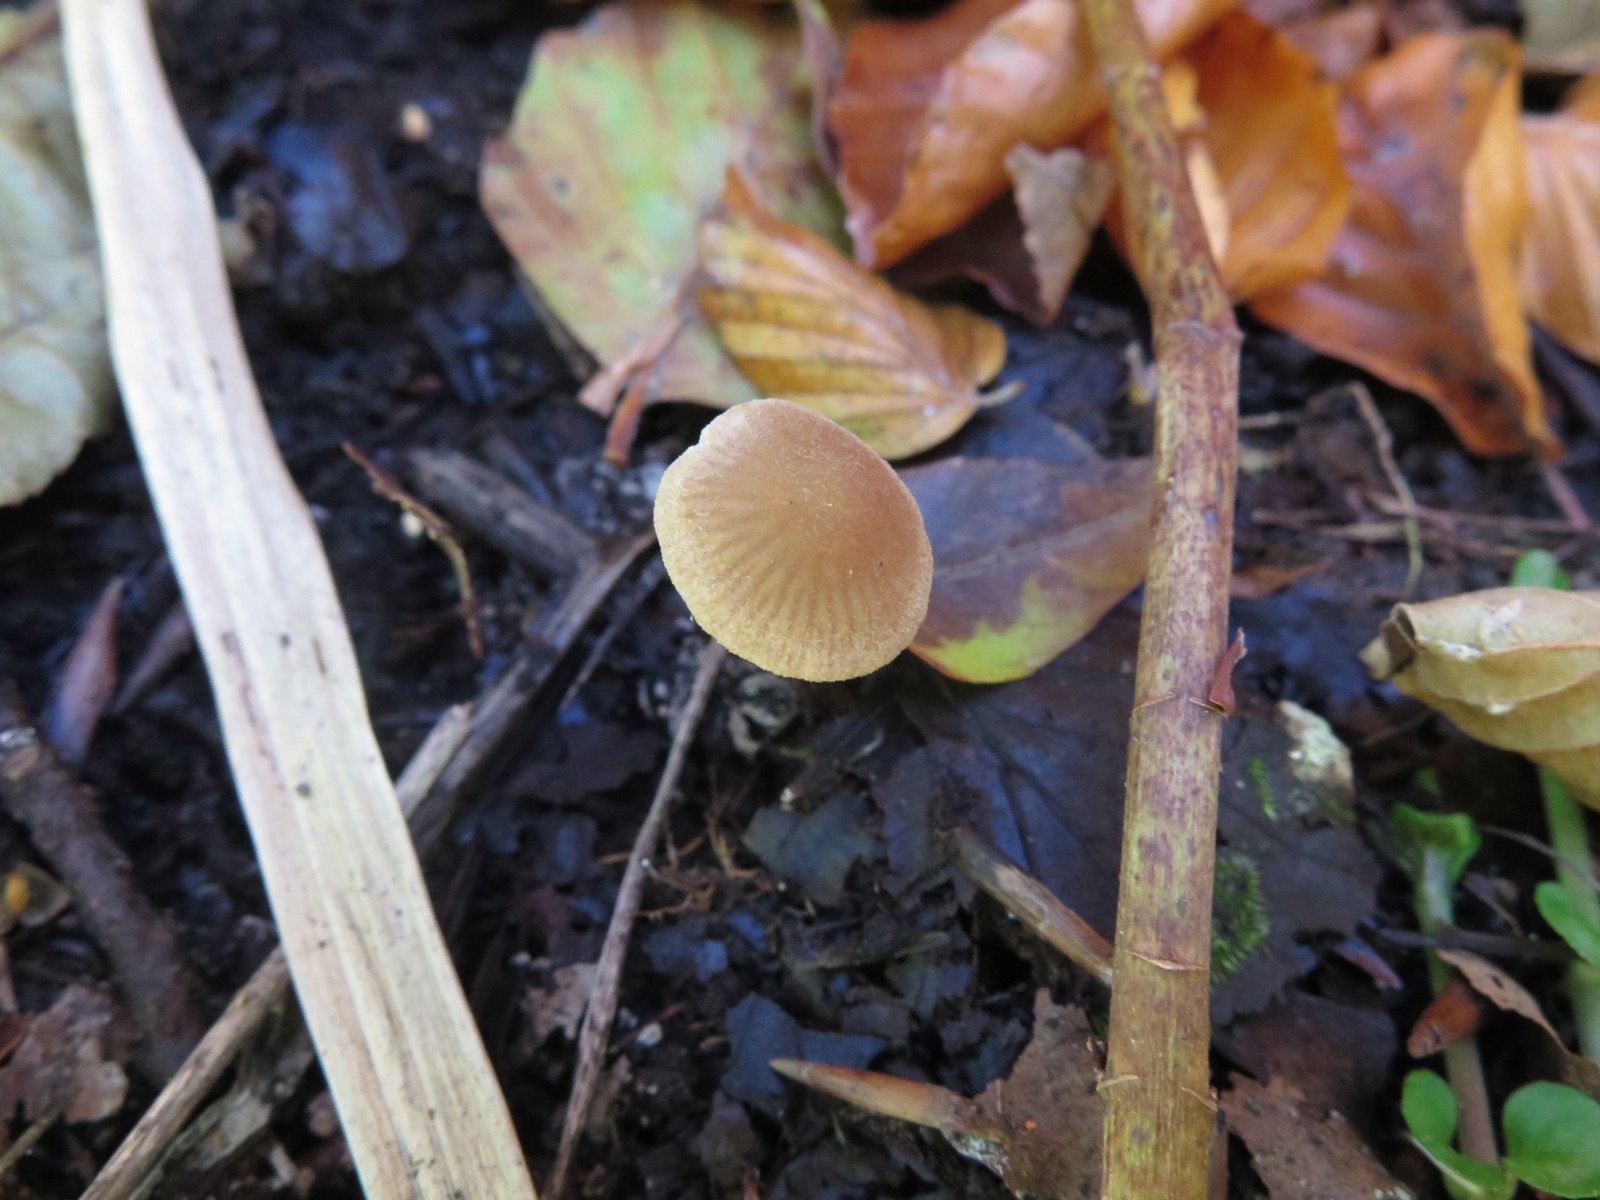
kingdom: Fungi
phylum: Basidiomycota
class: Agaricomycetes
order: Agaricales
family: Hymenogastraceae
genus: Naucoria
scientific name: Naucoria celluloderma
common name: enlig knaphat
